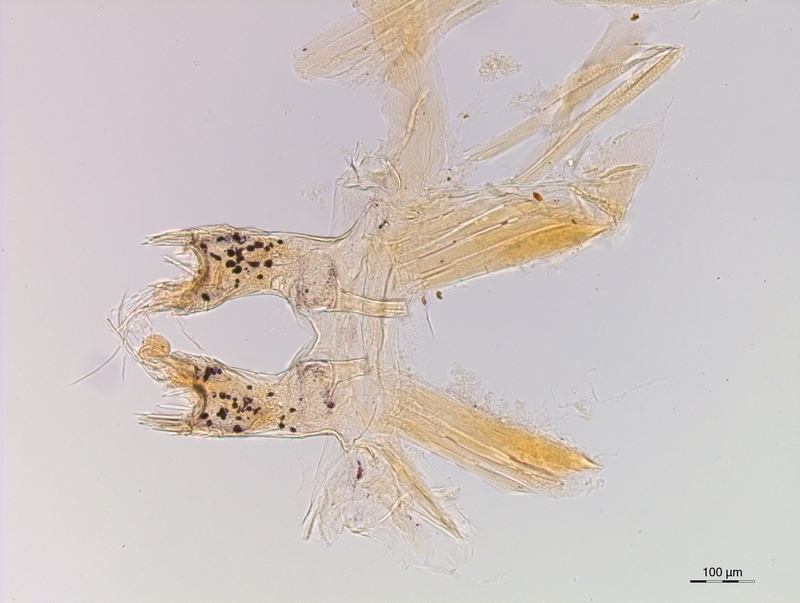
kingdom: Animalia
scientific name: Animalia
